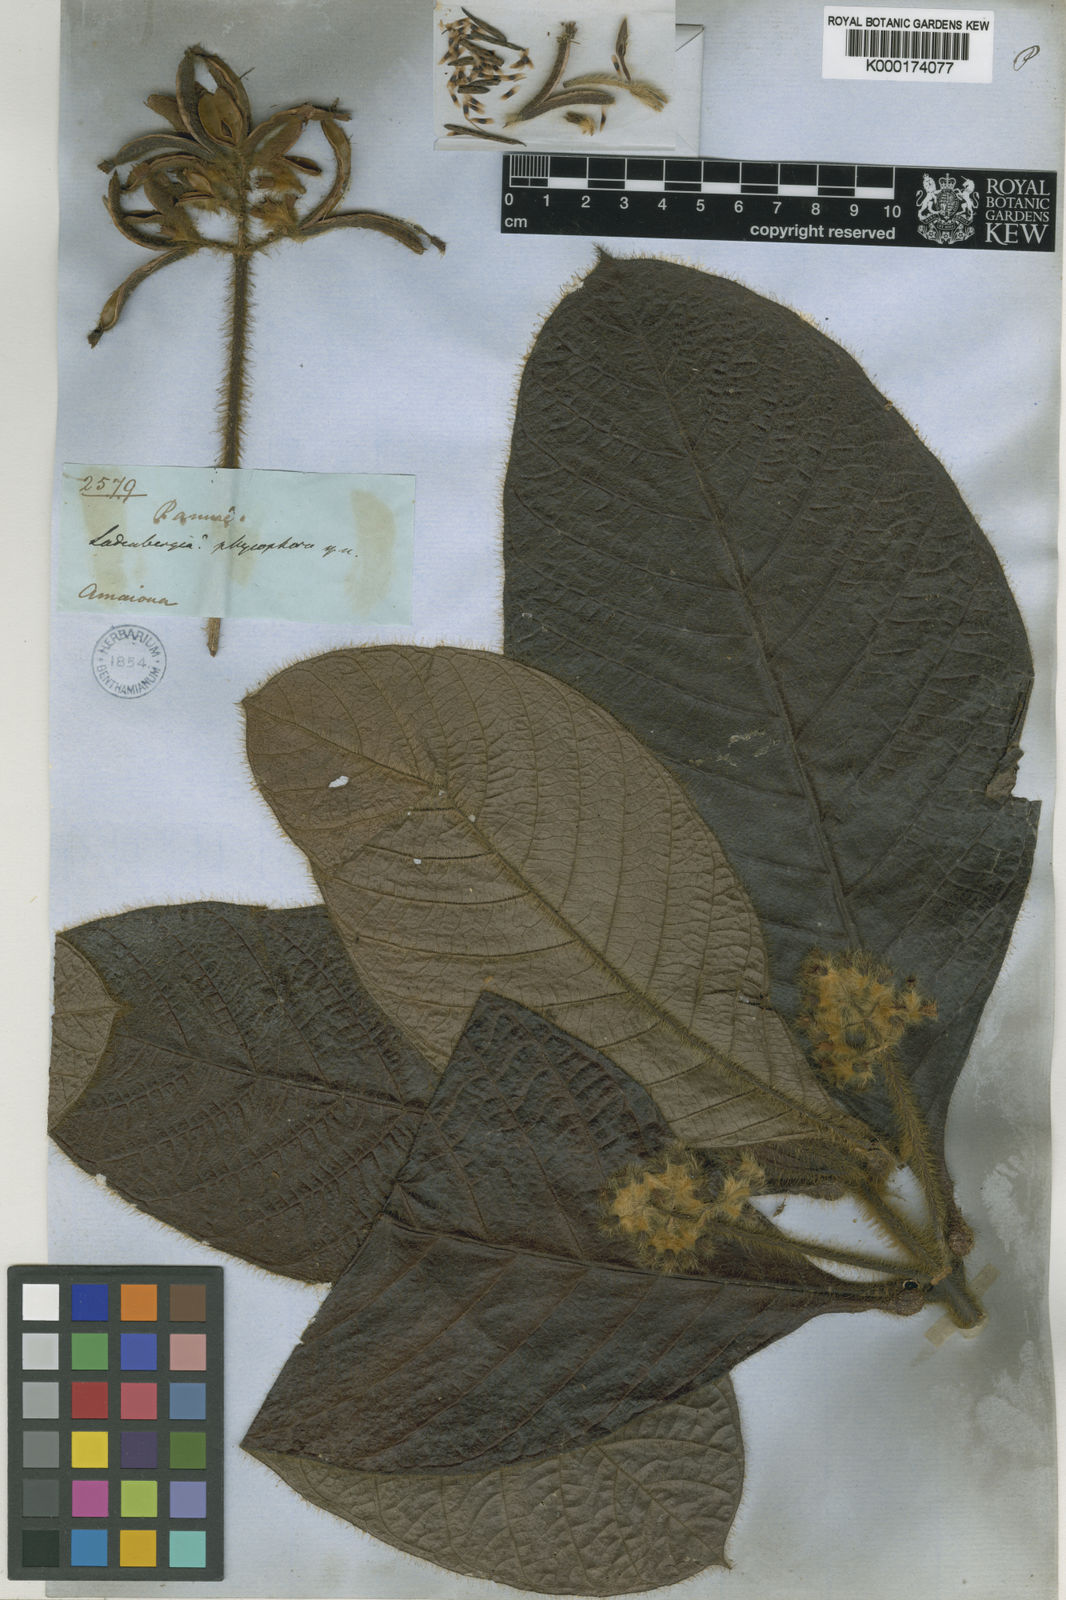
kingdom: Plantae
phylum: Tracheophyta
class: Magnoliopsida
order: Gentianales
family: Rubiaceae
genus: Remijia
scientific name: Remijia physophora
